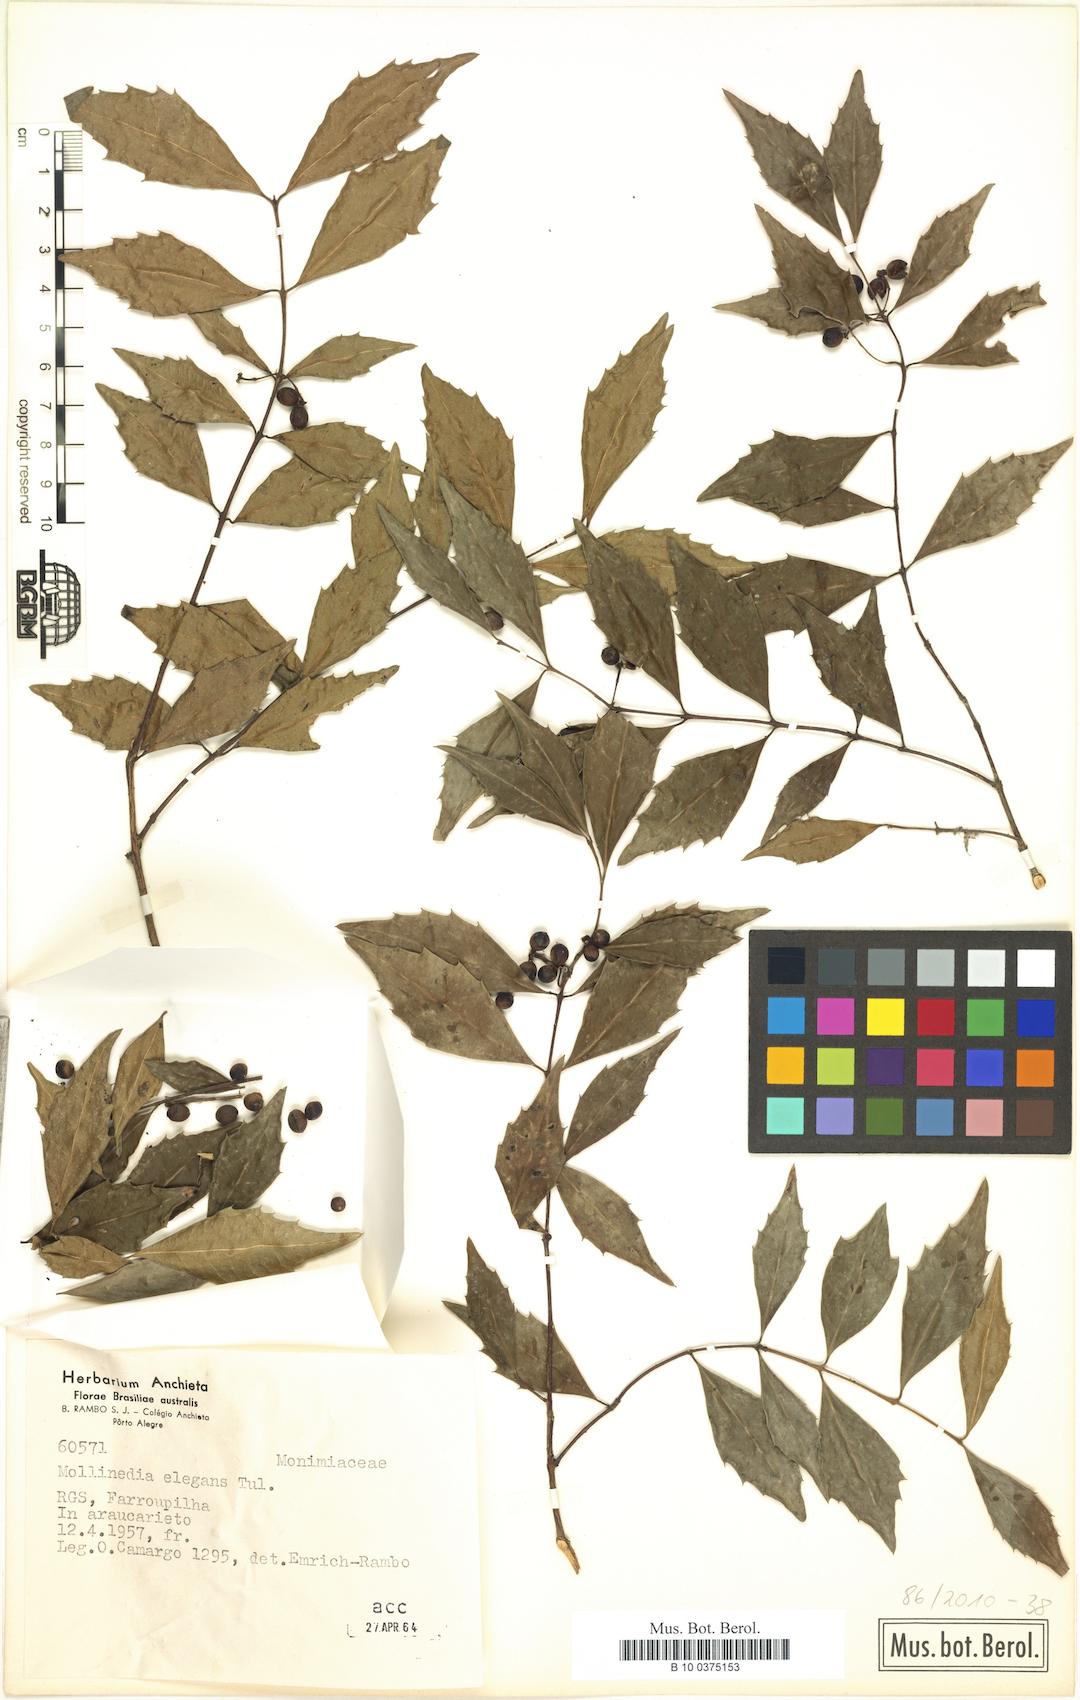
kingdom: Plantae
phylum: Tracheophyta
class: Magnoliopsida
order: Laurales
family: Monimiaceae
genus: Mollinedia
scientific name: Mollinedia elegans
